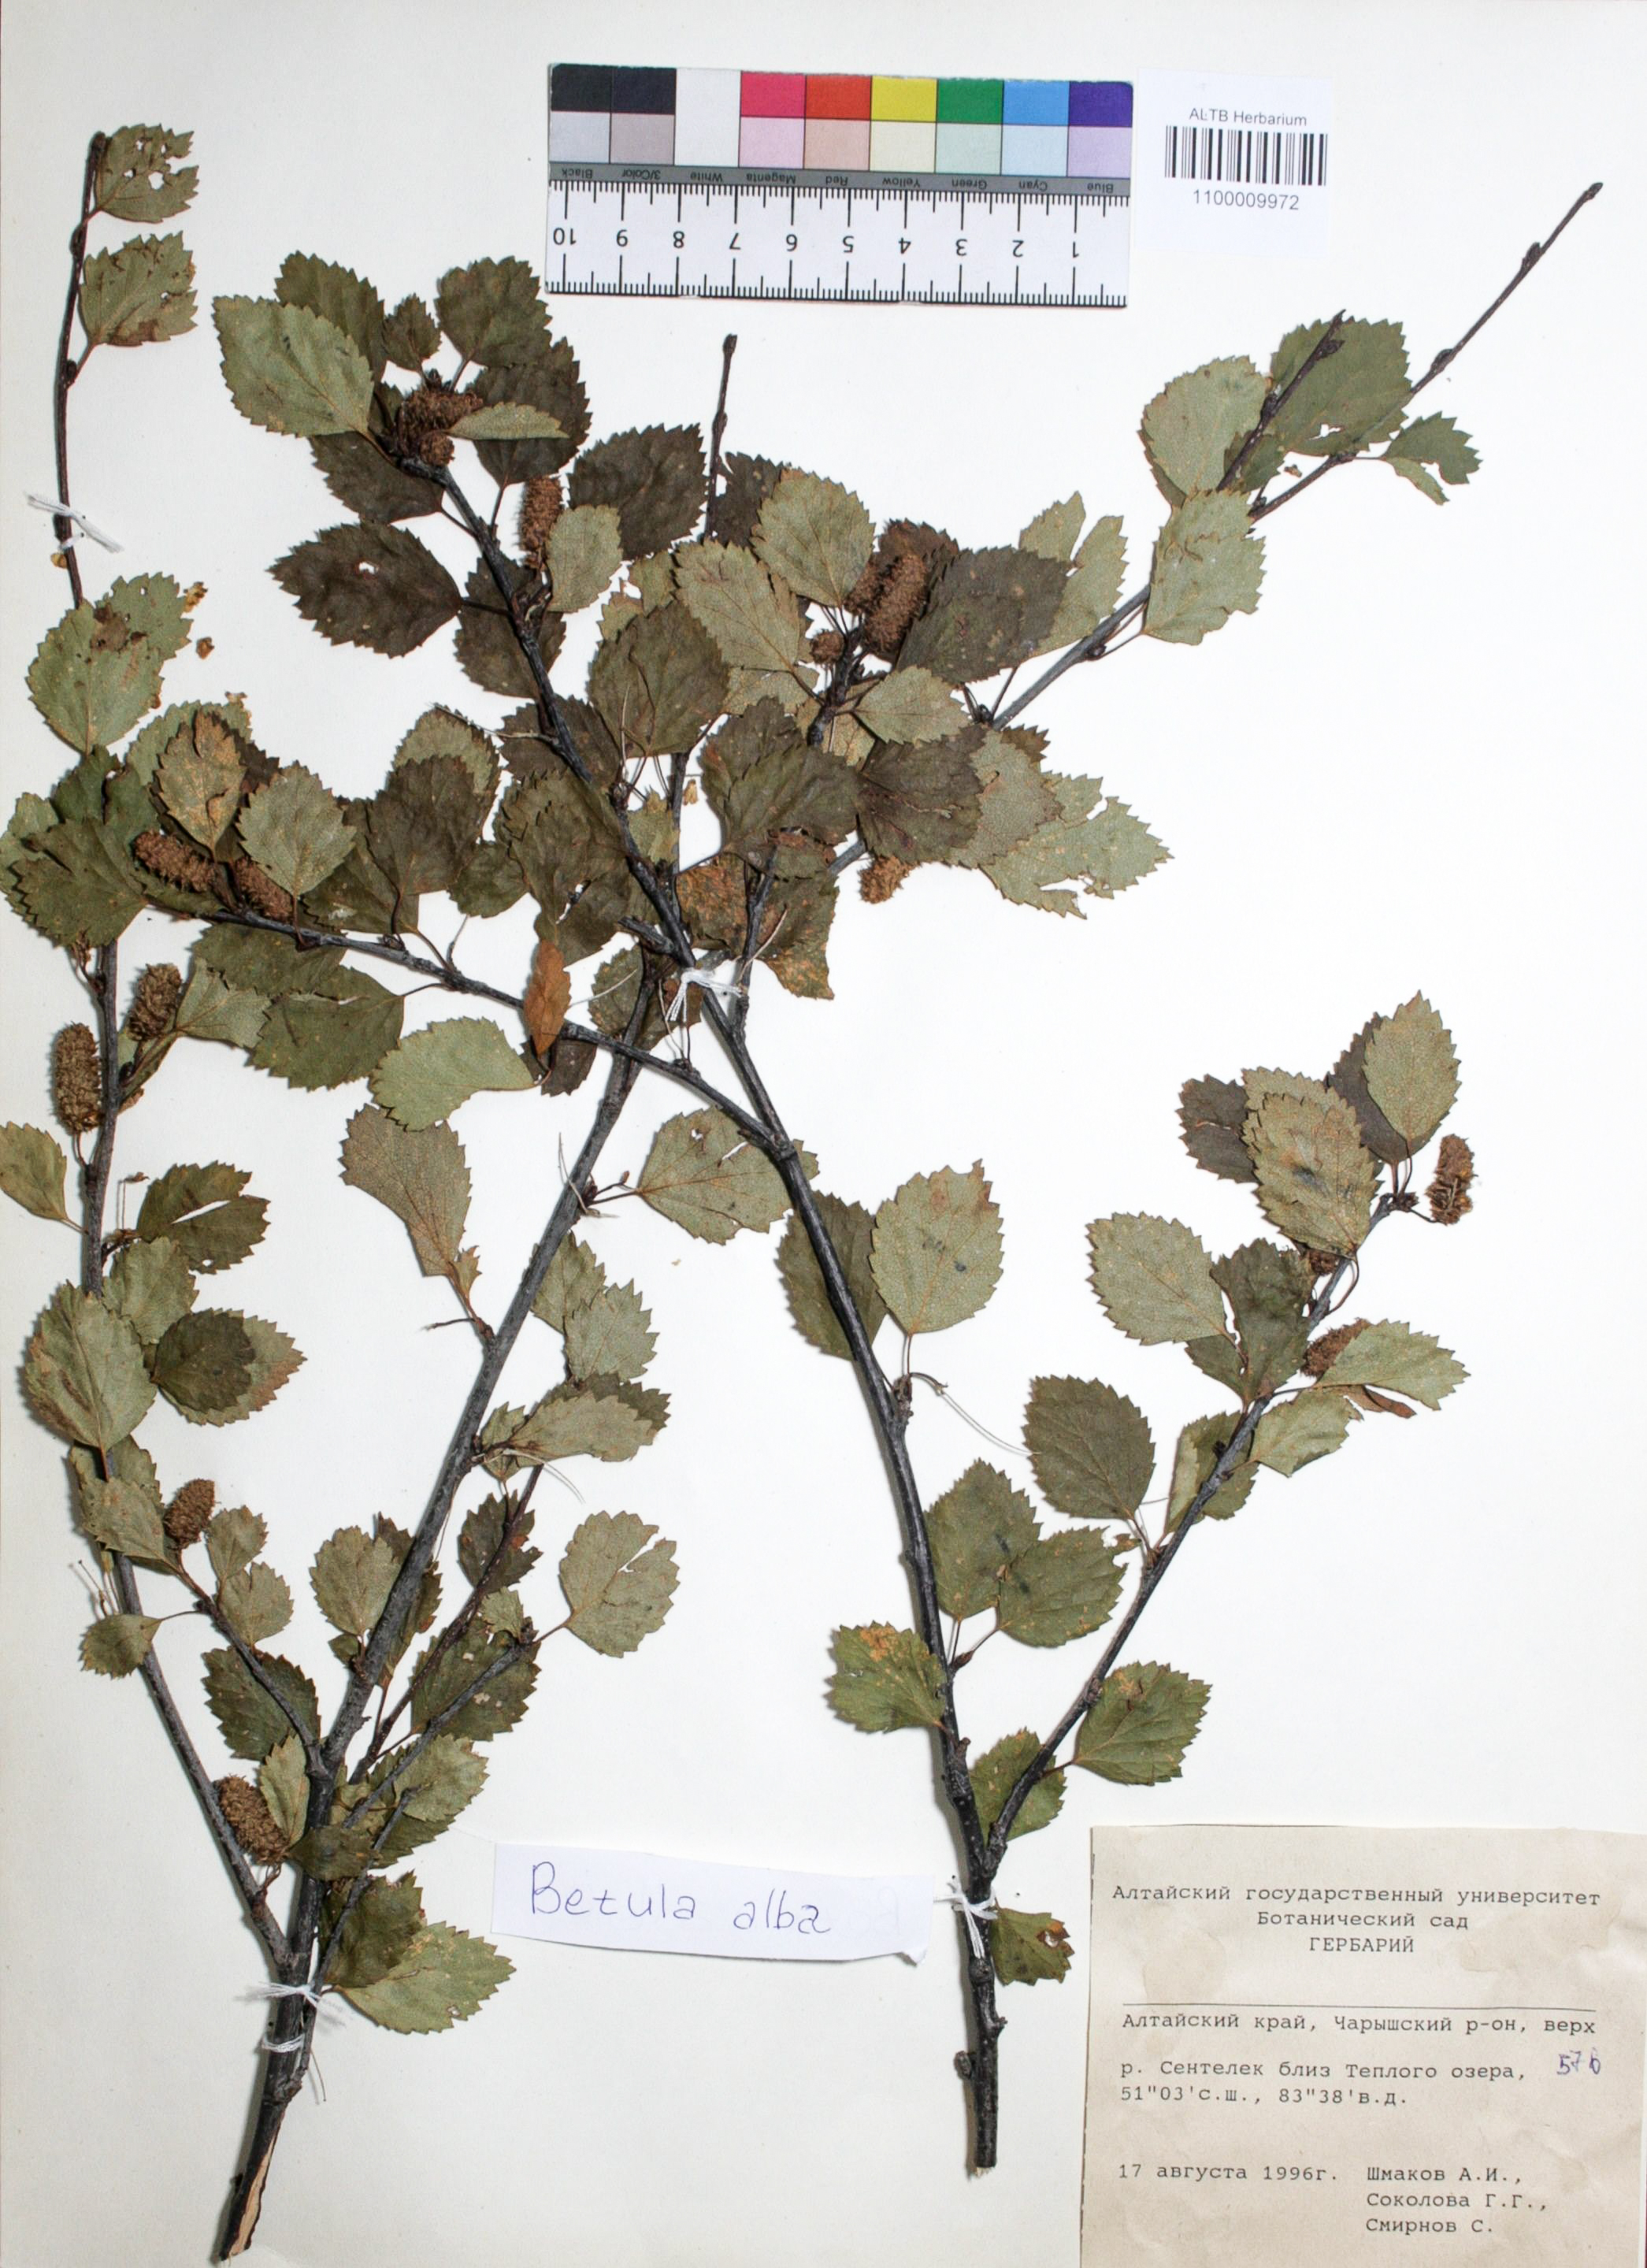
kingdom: Plantae
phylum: Tracheophyta
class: Magnoliopsida
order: Fagales
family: Betulaceae
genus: Betula
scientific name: Betula pubescens
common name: Downy birch
